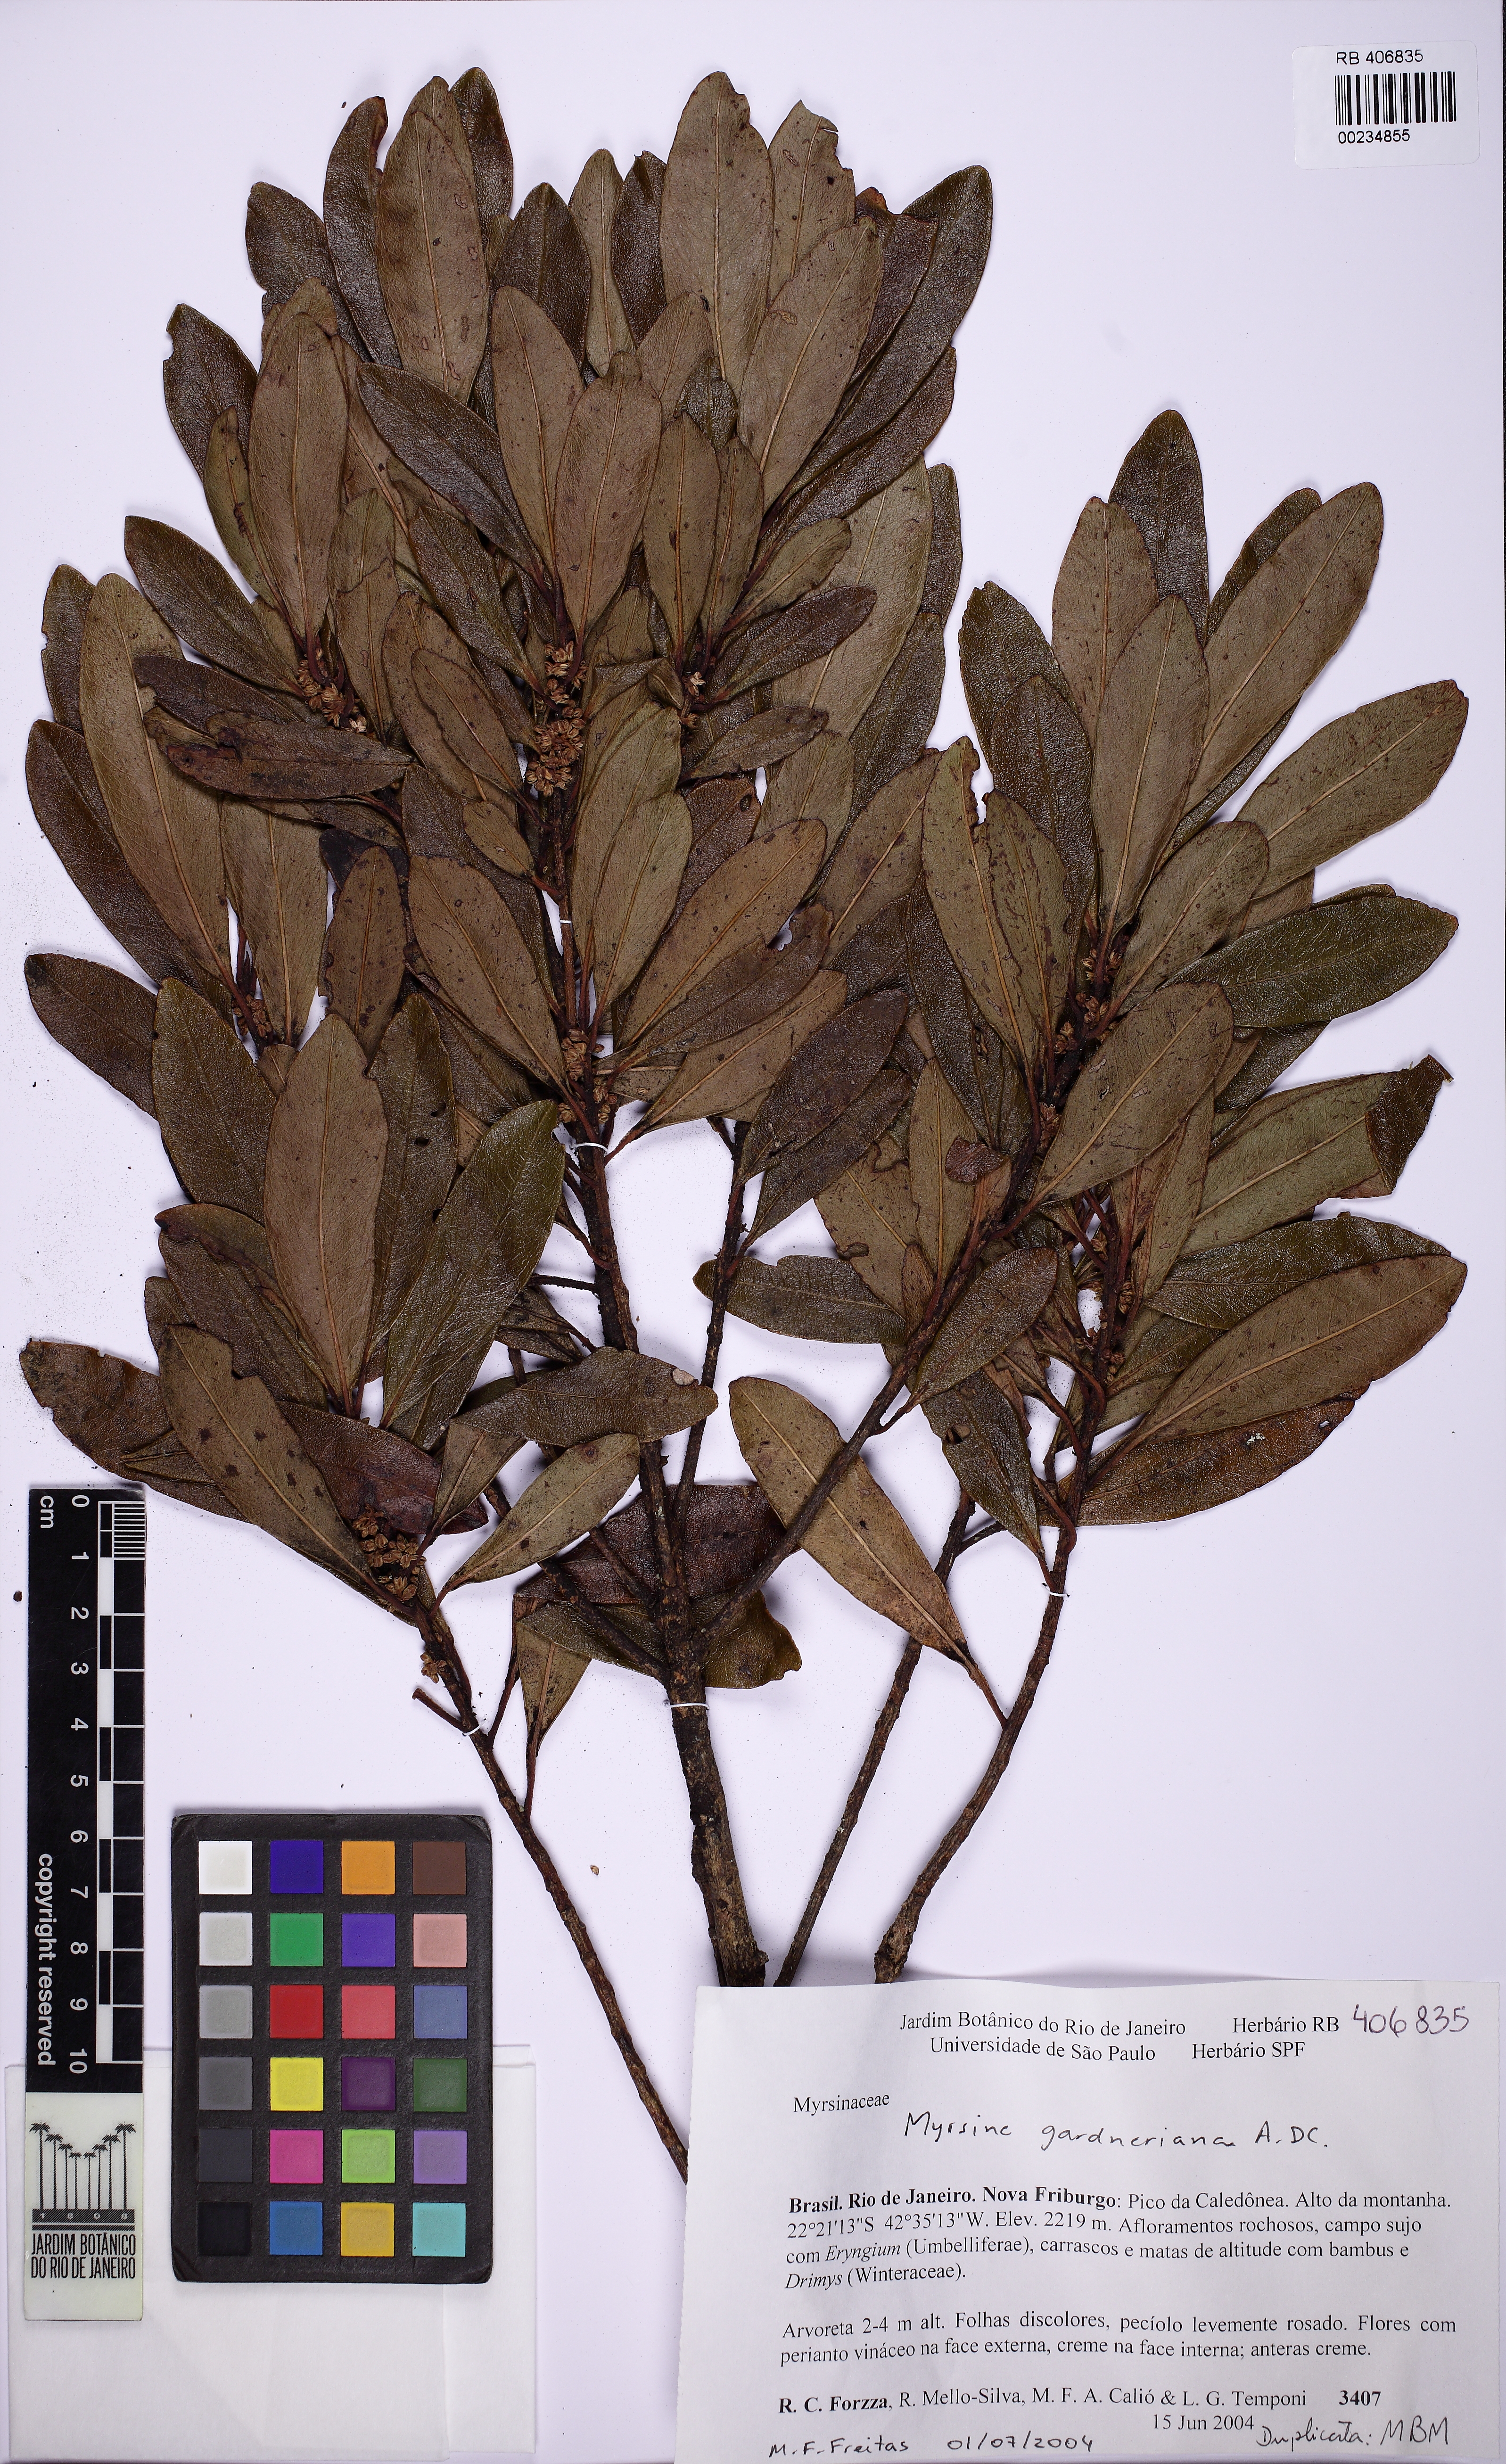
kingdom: Plantae
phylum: Tracheophyta
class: Magnoliopsida
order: Ericales
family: Primulaceae
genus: Myrsine
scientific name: Myrsine gardneriana
